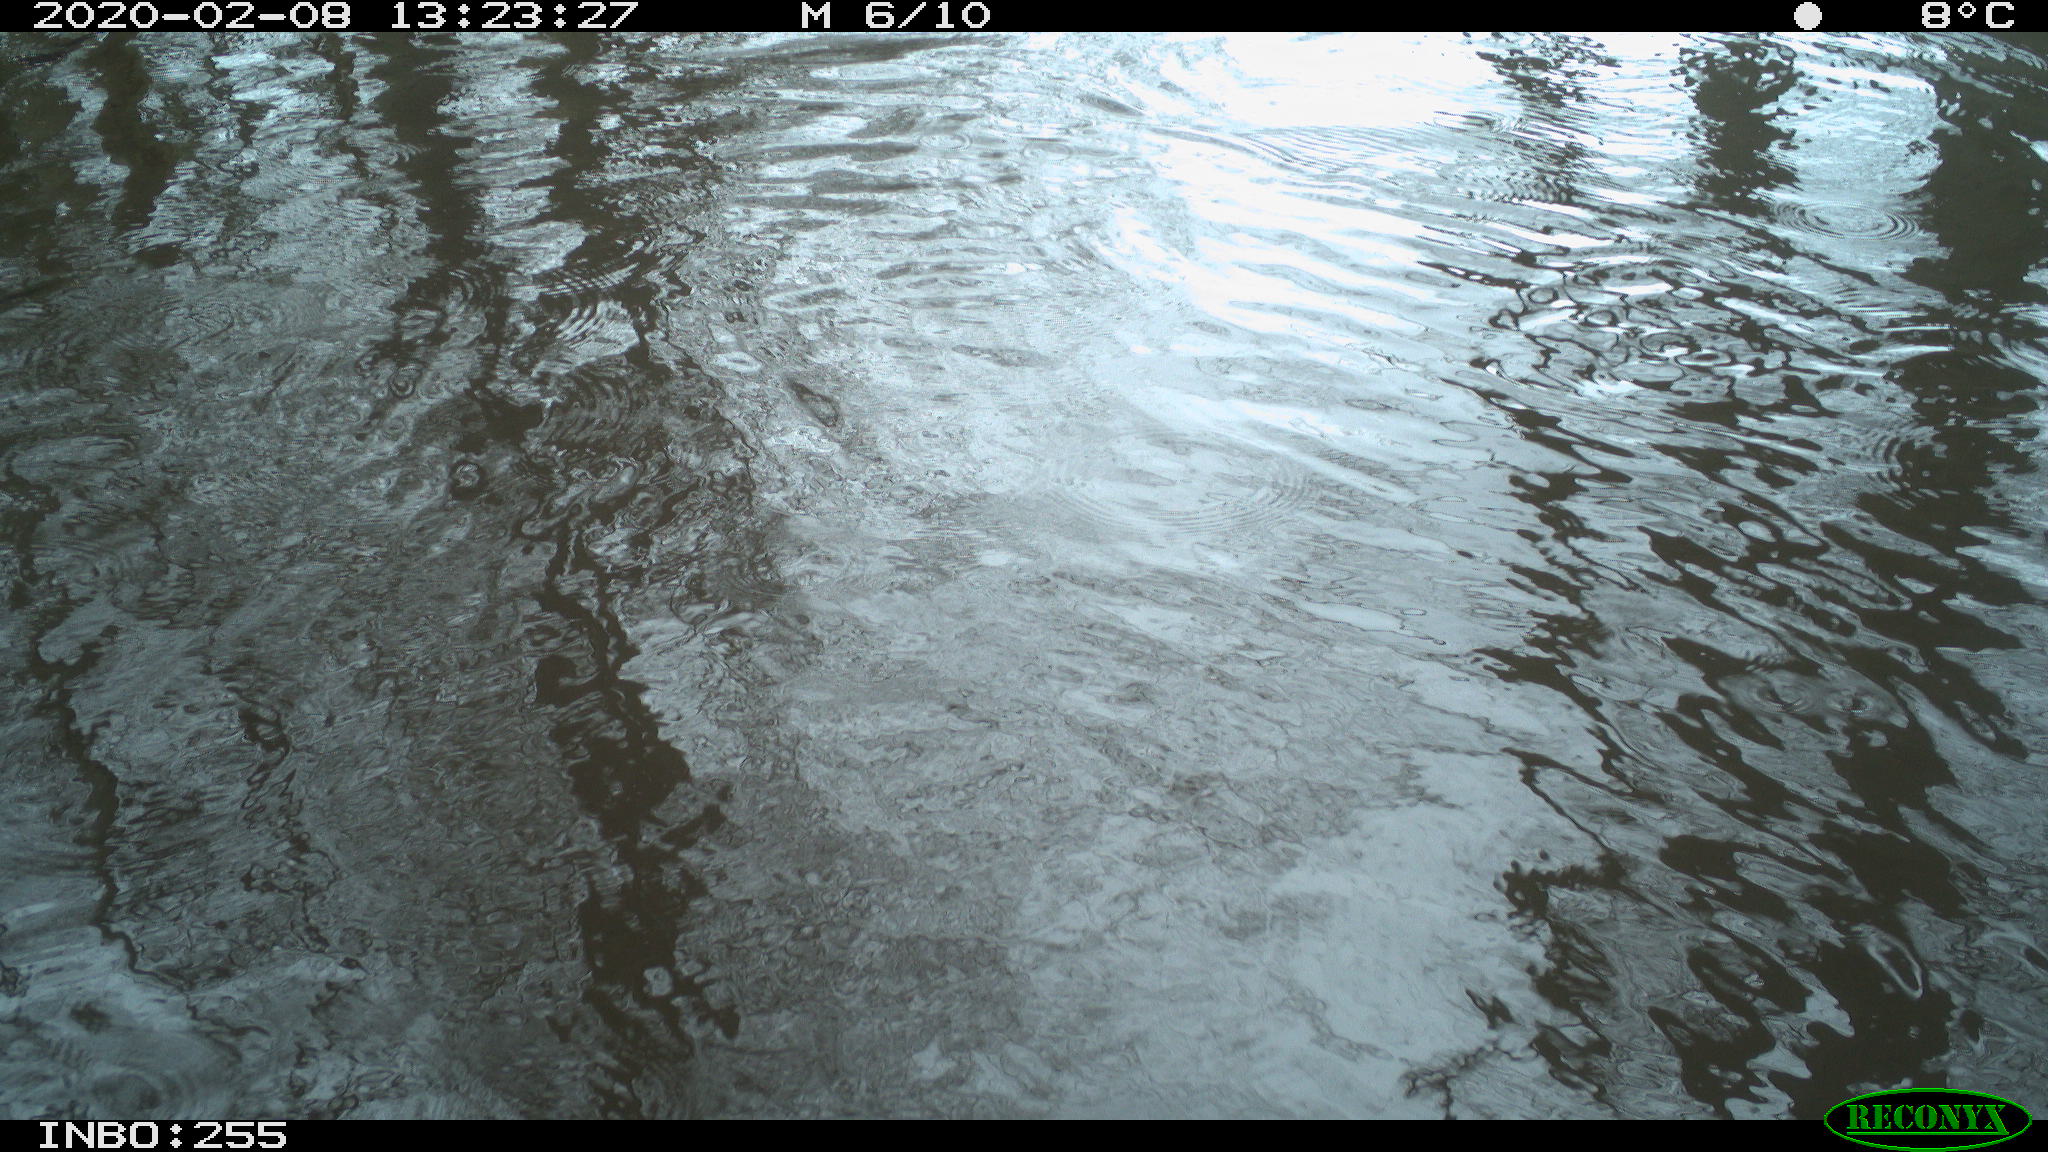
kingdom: Animalia
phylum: Chordata
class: Aves
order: Gruiformes
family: Rallidae
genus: Fulica
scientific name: Fulica atra
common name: Eurasian coot
